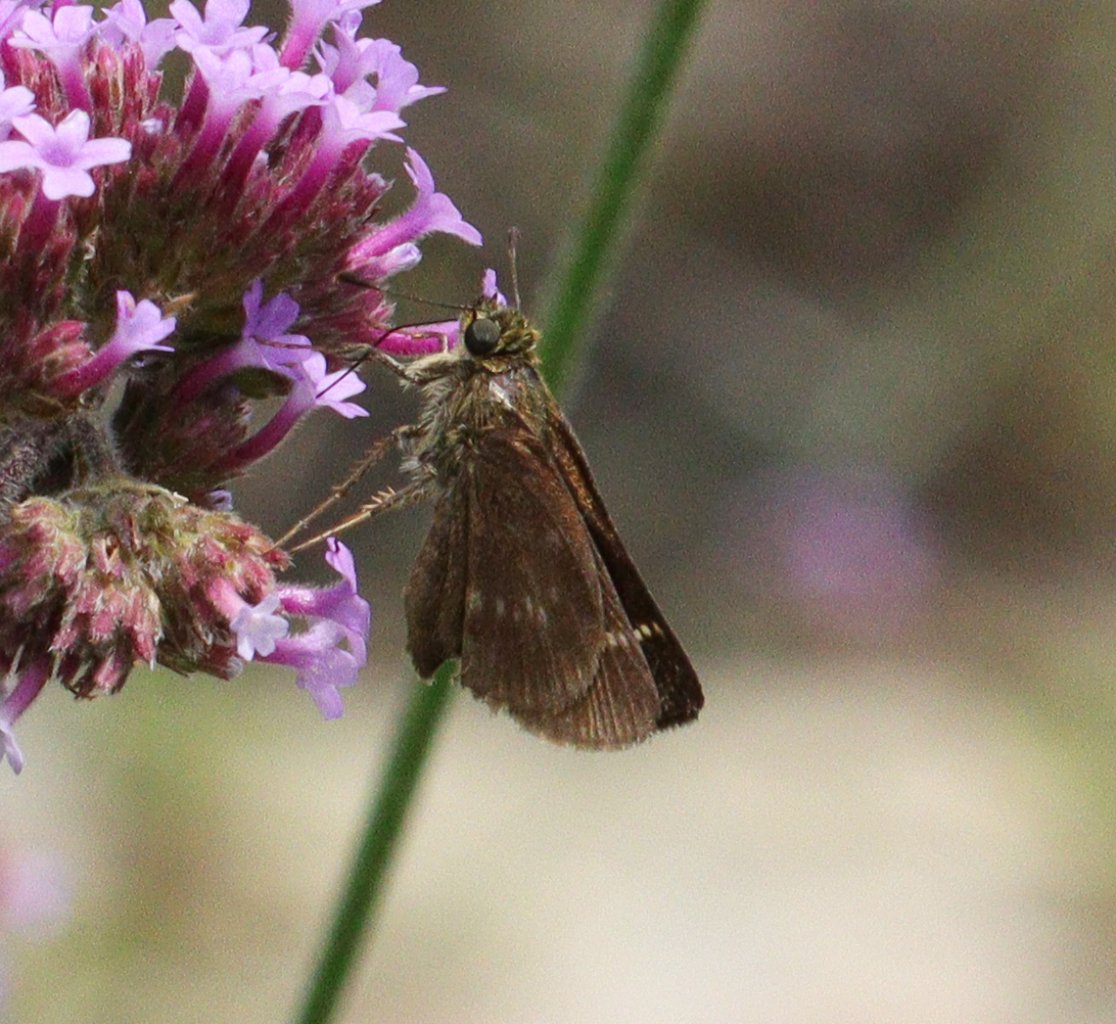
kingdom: Animalia
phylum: Arthropoda
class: Insecta
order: Lepidoptera
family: Hesperiidae
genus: Vernia
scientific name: Vernia verna
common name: Little Glassywing
